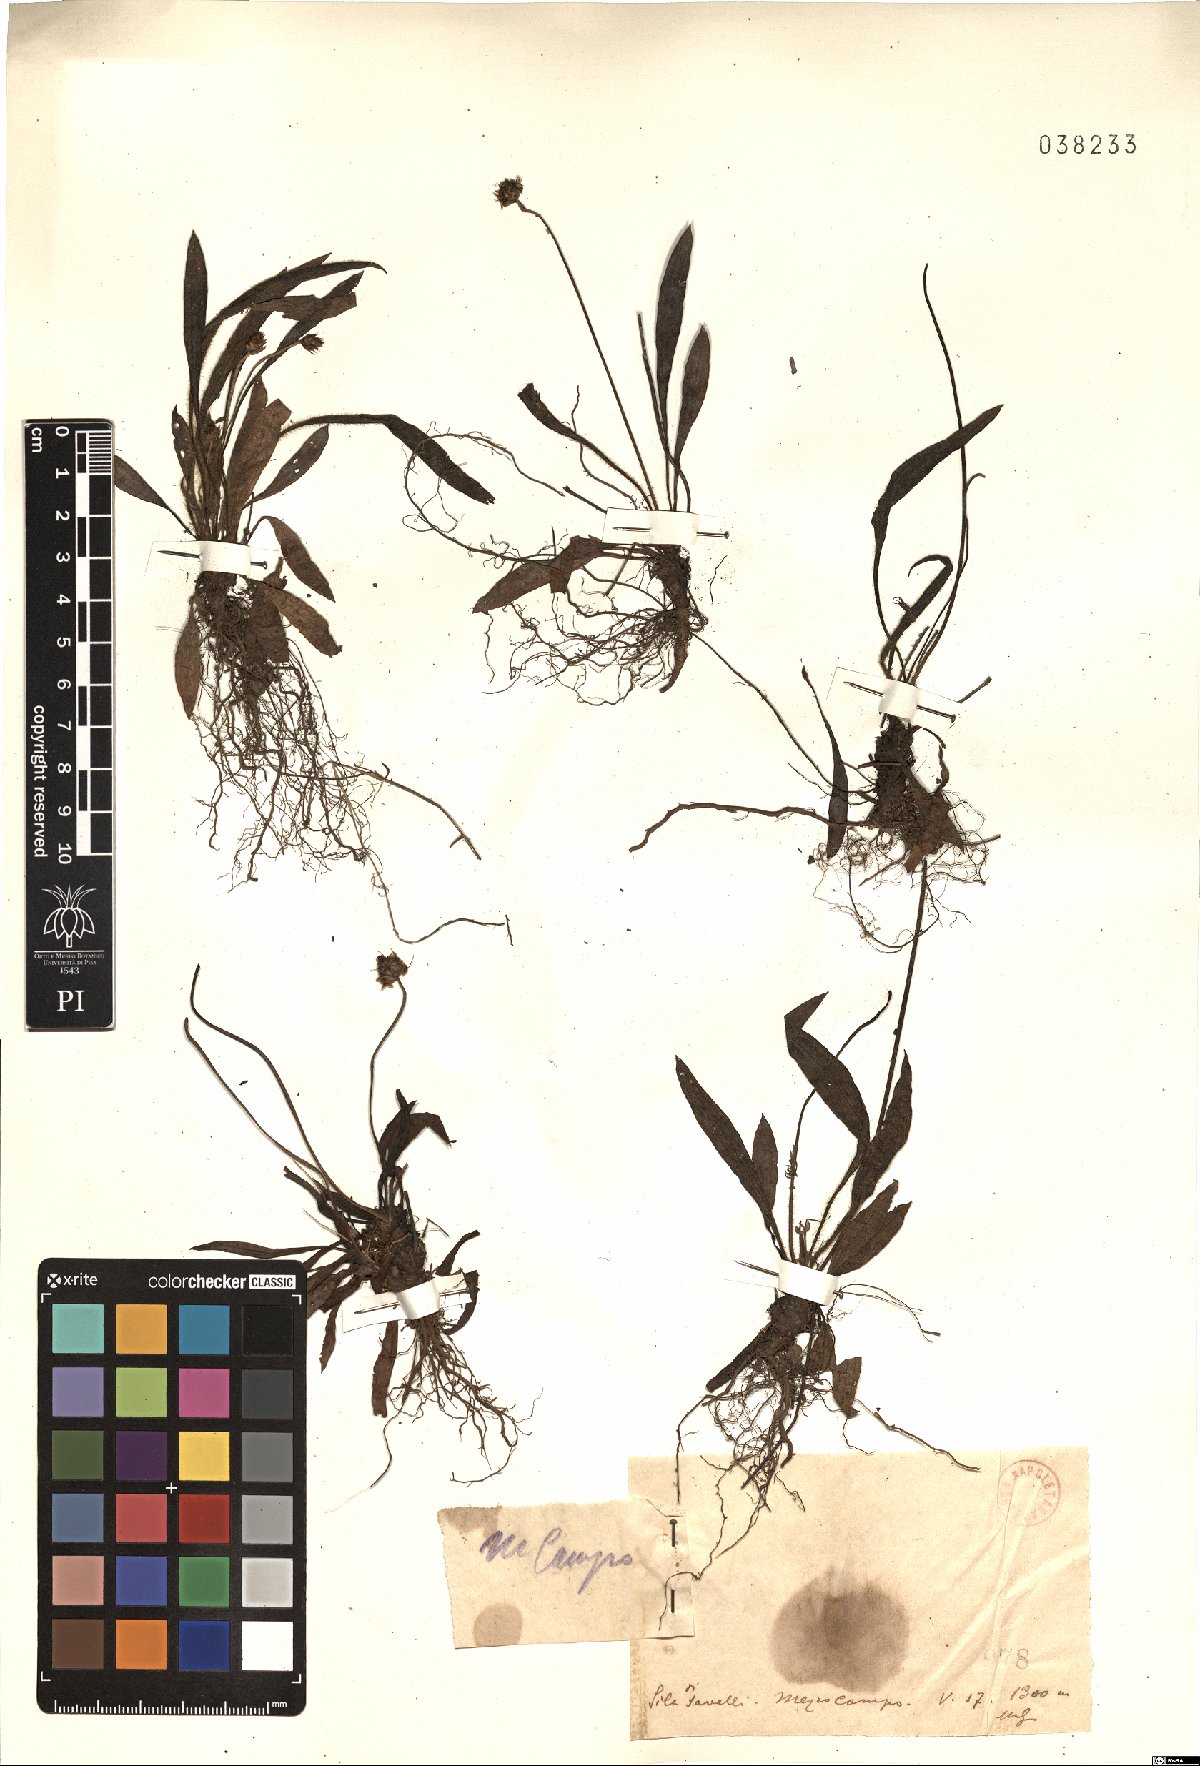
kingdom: Plantae
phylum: Tracheophyta
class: Magnoliopsida
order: Lamiales
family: Plantaginaceae
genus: Plantago
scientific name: Plantago
